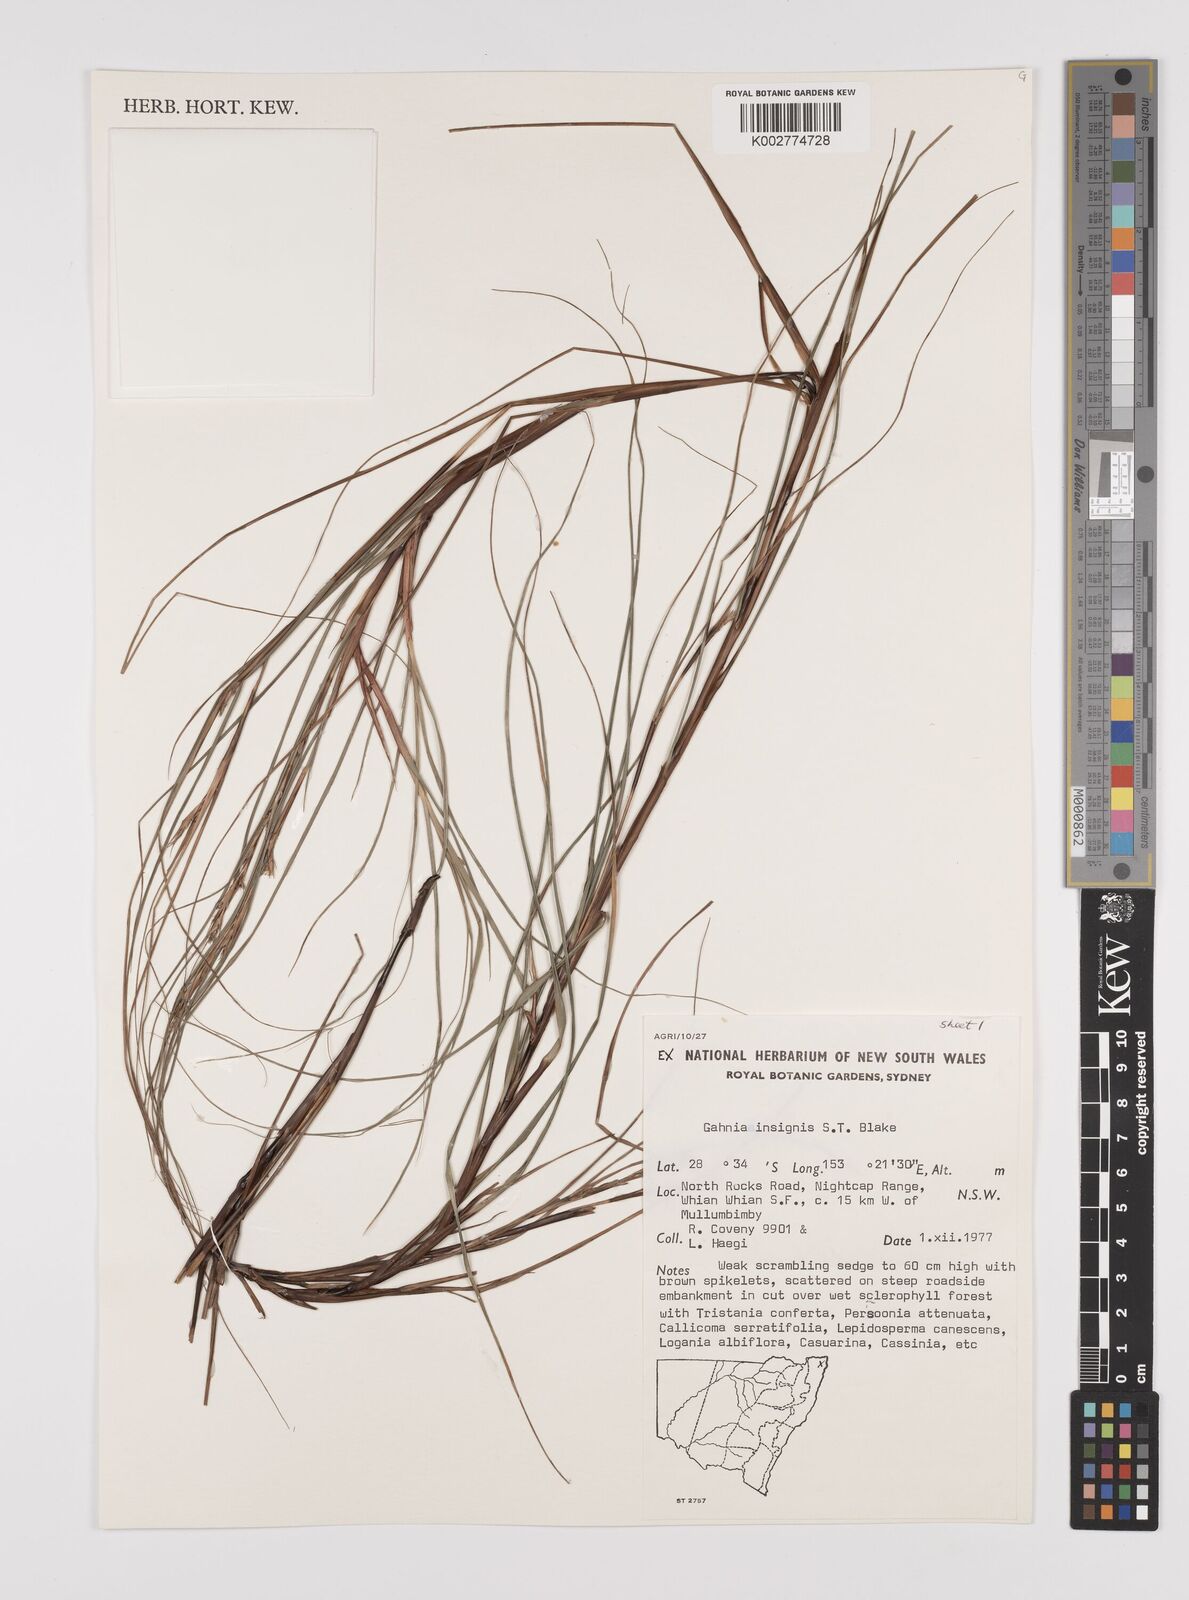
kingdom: Plantae
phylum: Tracheophyta
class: Liliopsida
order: Poales
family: Cyperaceae
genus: Gahnia
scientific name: Gahnia insignis
